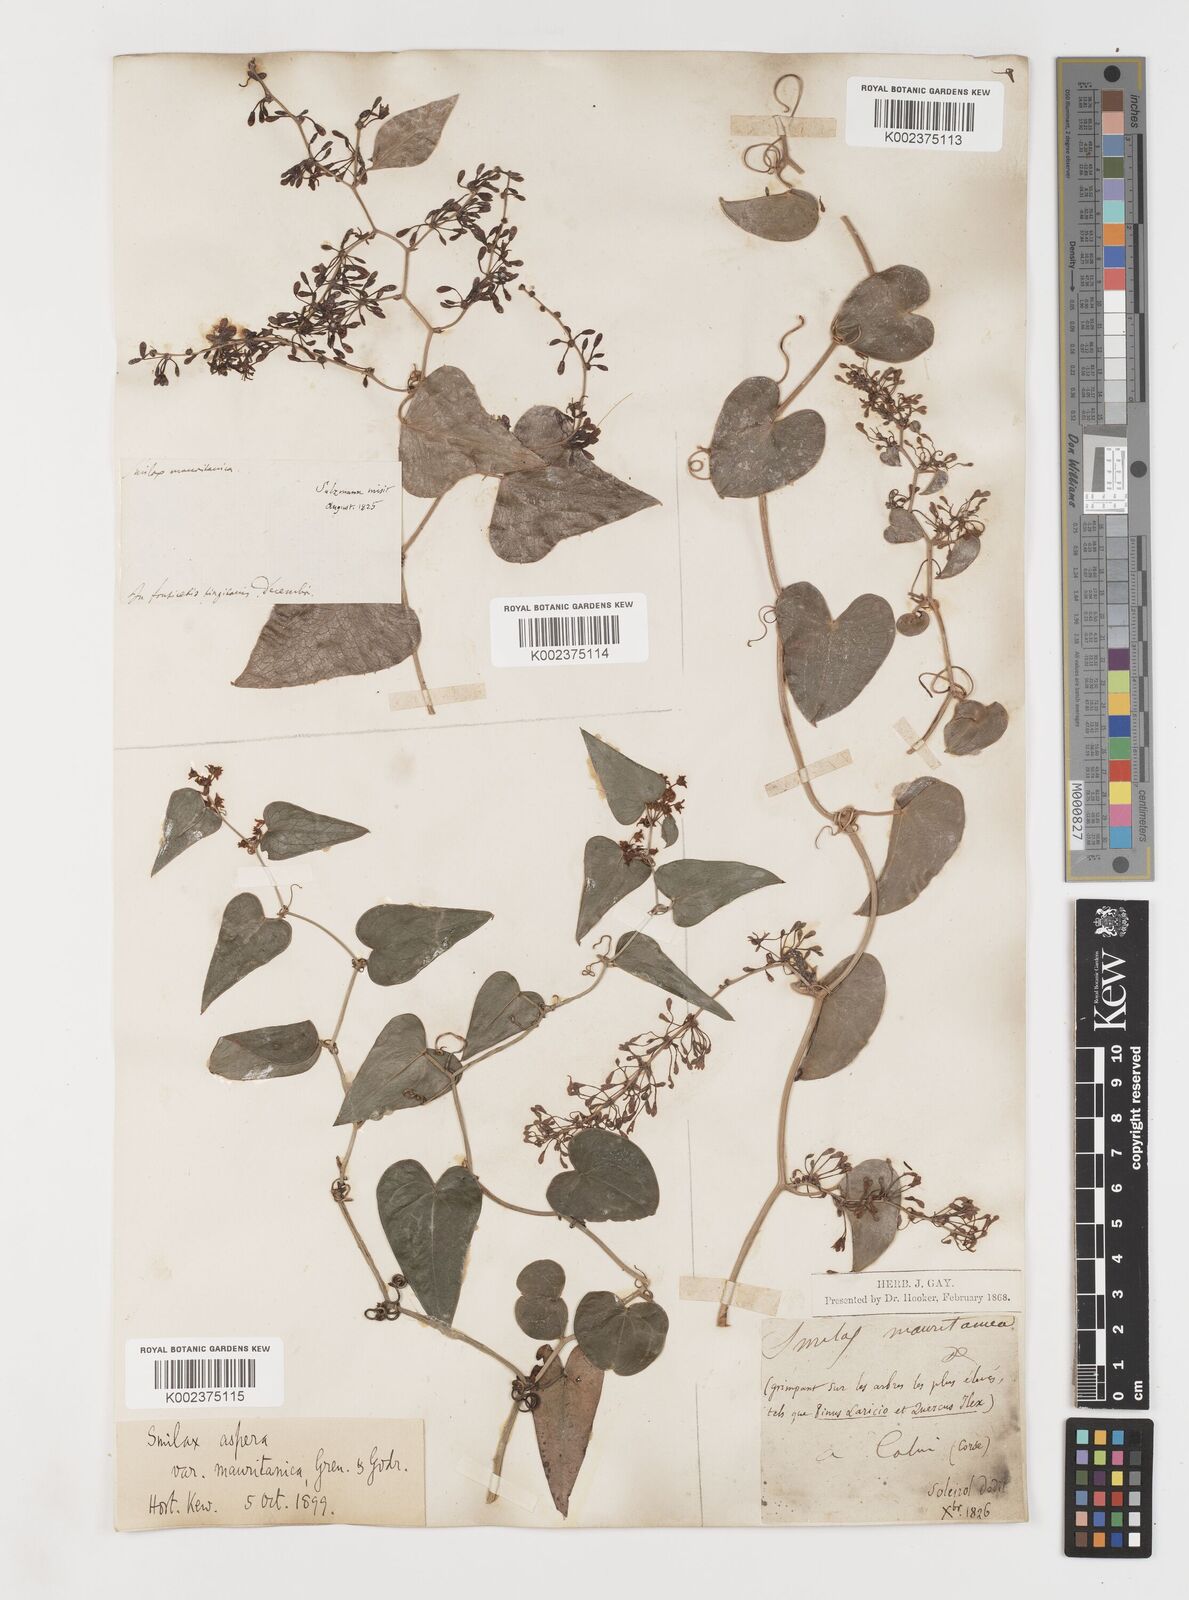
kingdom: Plantae
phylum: Tracheophyta
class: Liliopsida
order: Liliales
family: Smilacaceae
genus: Smilax
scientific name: Smilax aspera
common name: Common smilax
